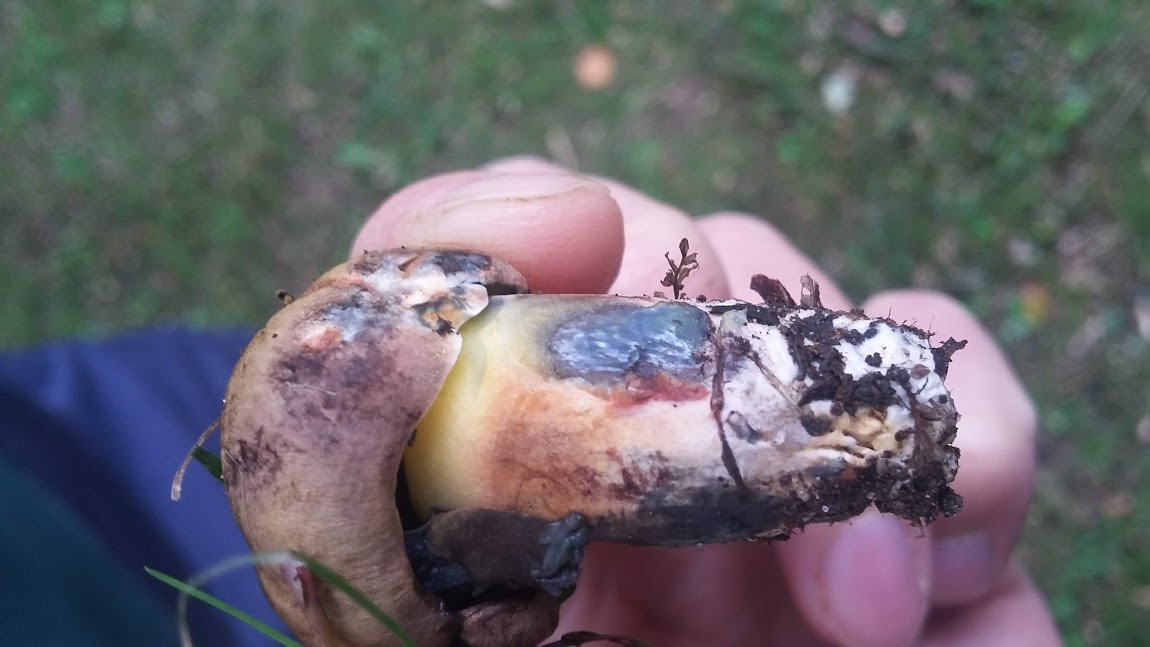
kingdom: Fungi
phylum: Basidiomycota
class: Agaricomycetes
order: Boletales
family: Boletaceae
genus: Cyanoboletus
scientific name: Cyanoboletus pulverulentus
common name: sortblånende rørhat
